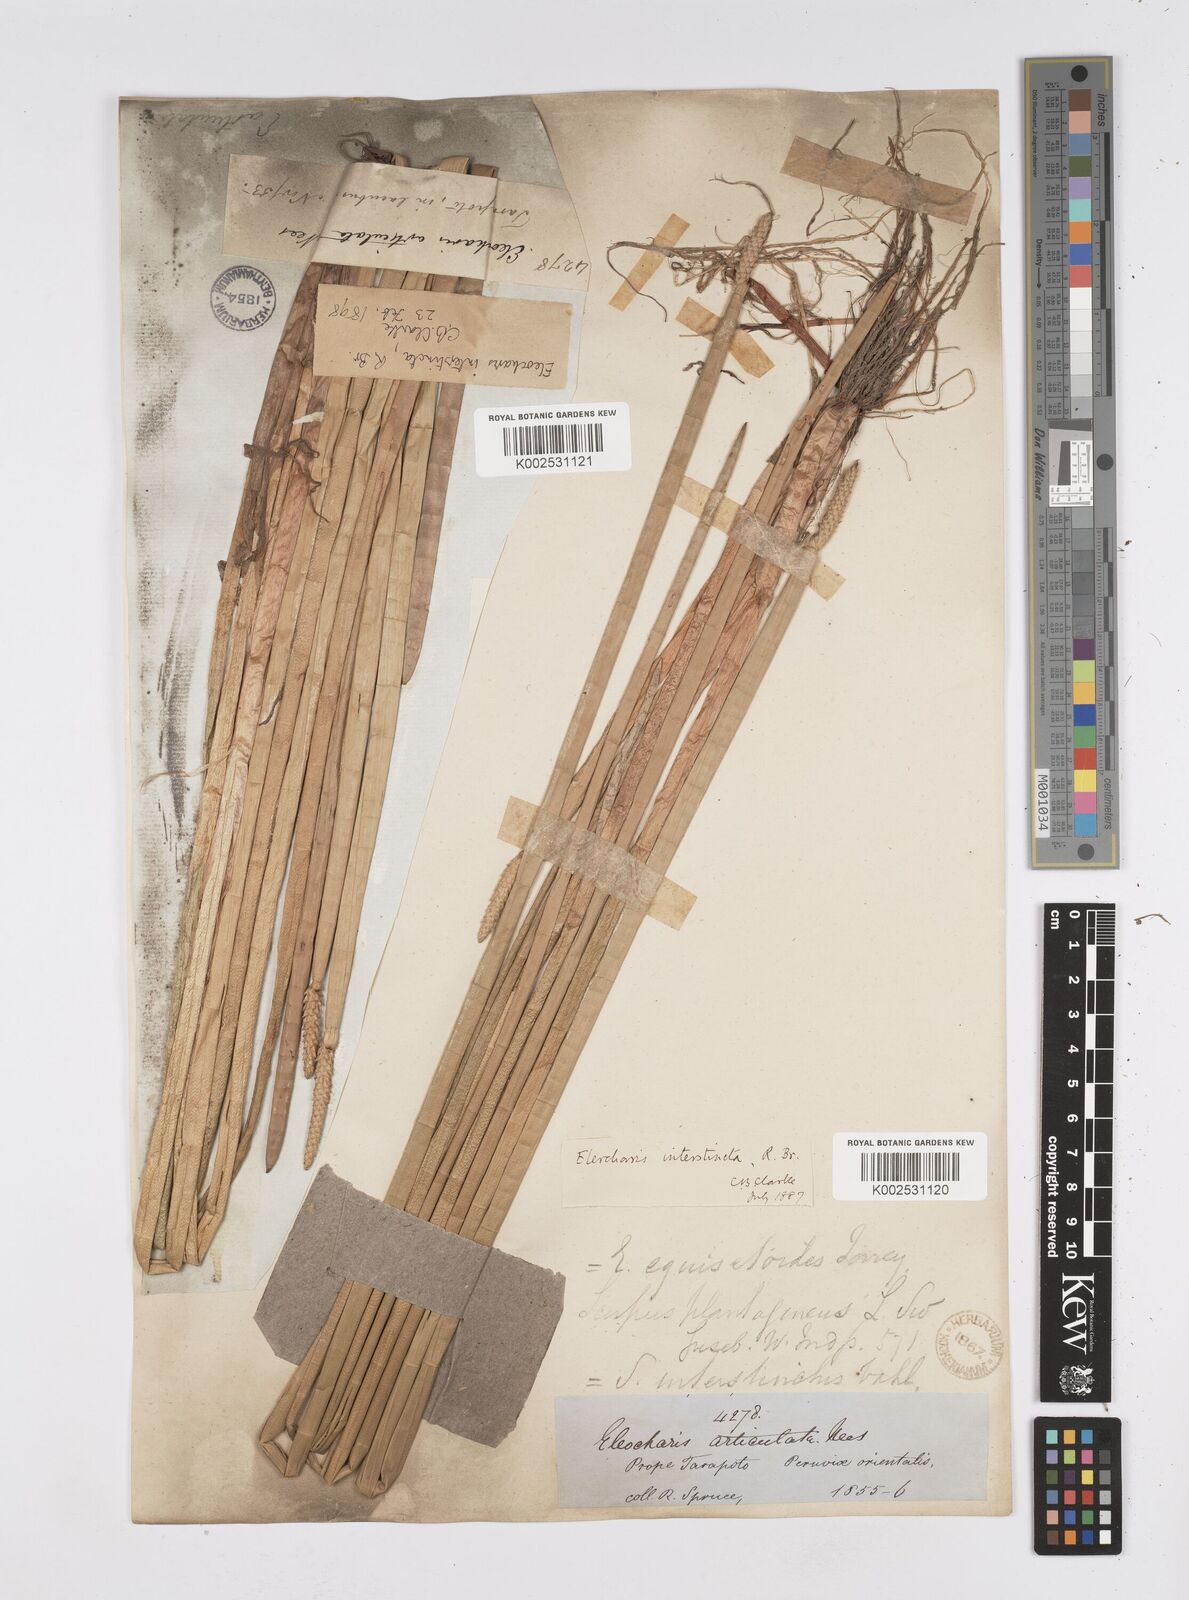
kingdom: Plantae
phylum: Tracheophyta
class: Liliopsida
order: Poales
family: Cyperaceae
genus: Eleocharis
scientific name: Eleocharis interstincta
